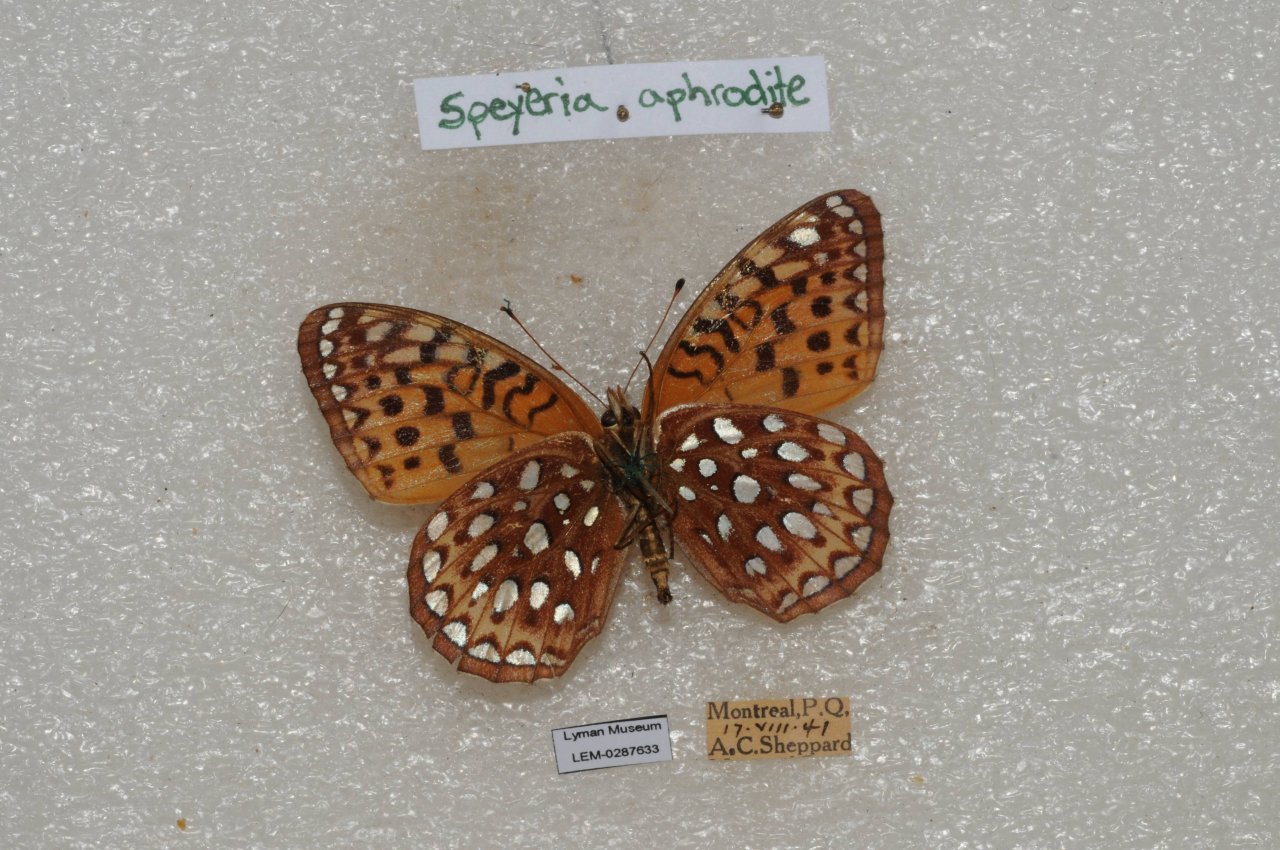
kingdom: Animalia
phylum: Arthropoda
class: Insecta
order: Lepidoptera
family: Nymphalidae
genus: Speyeria
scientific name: Speyeria aphrodite
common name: Aphrodite Fritillary
